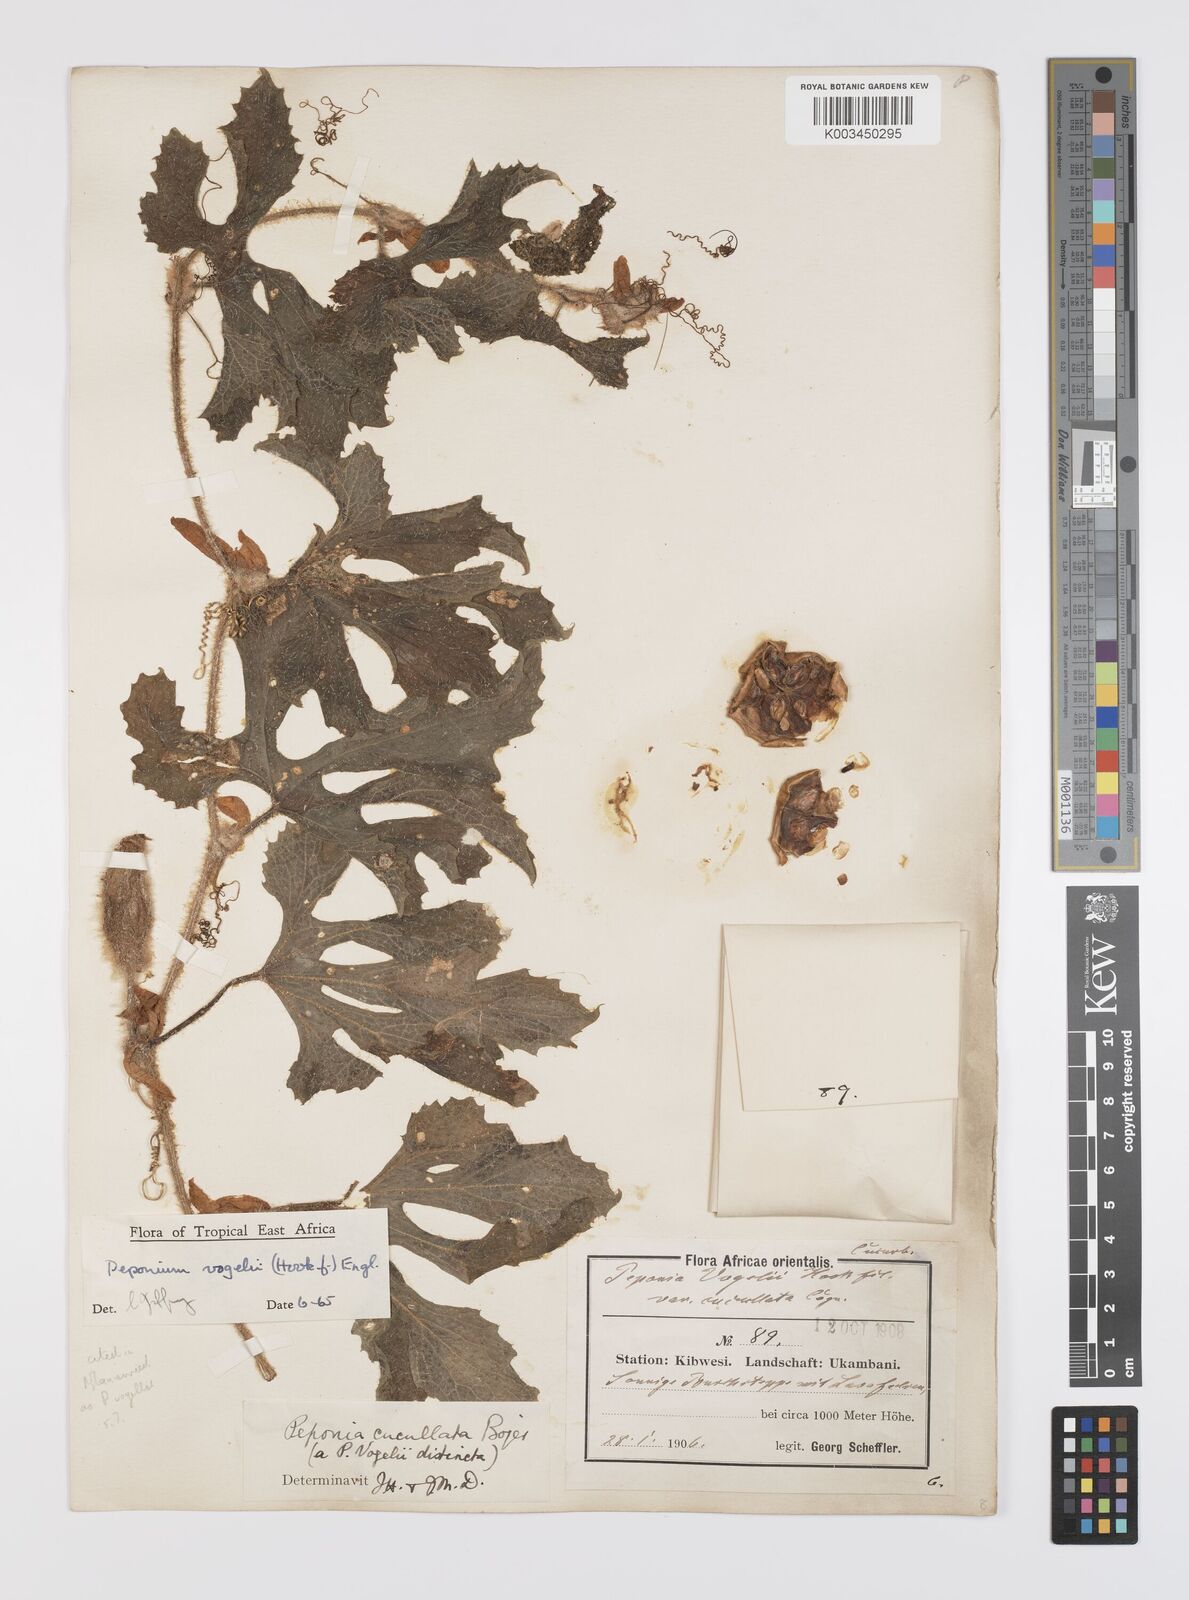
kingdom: Plantae
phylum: Tracheophyta
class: Magnoliopsida
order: Cucurbitales
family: Cucurbitaceae
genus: Peponium
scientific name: Peponium vogelii
